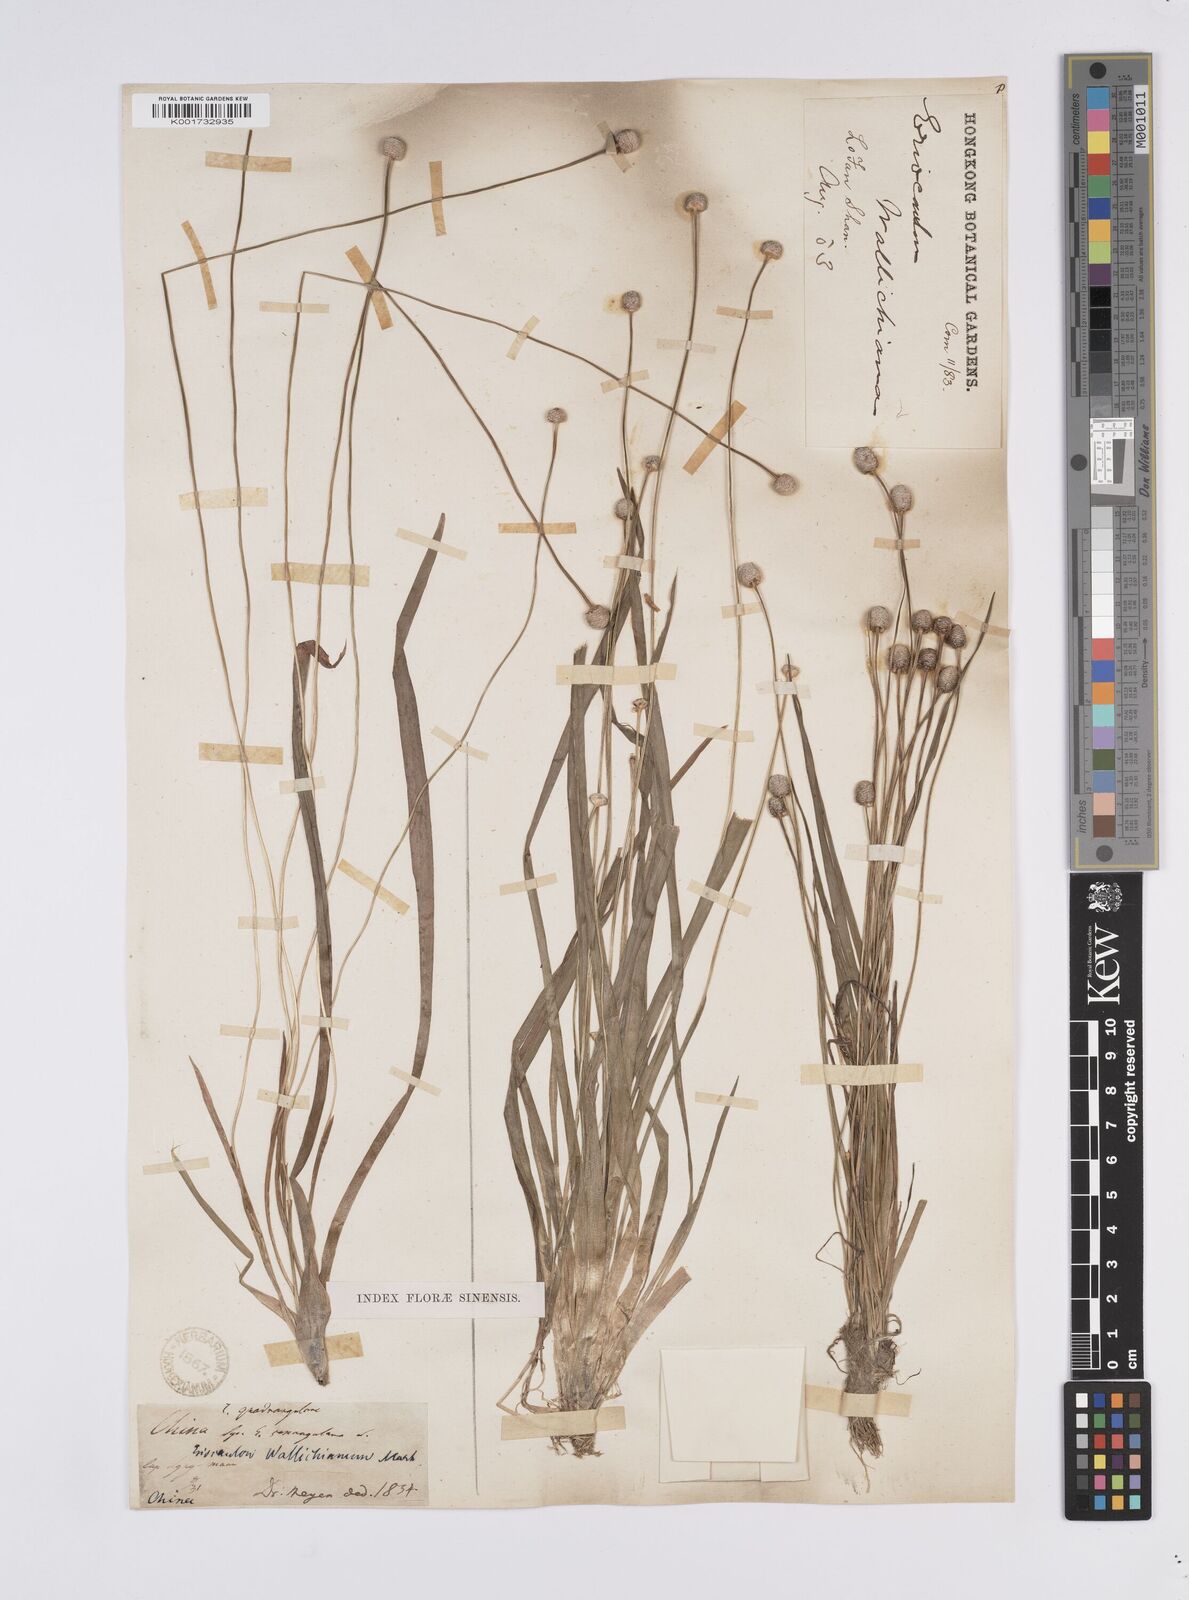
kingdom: Plantae
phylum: Tracheophyta
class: Liliopsida
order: Poales
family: Eriocaulaceae
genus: Eriocaulon
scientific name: Eriocaulon sexangulare
